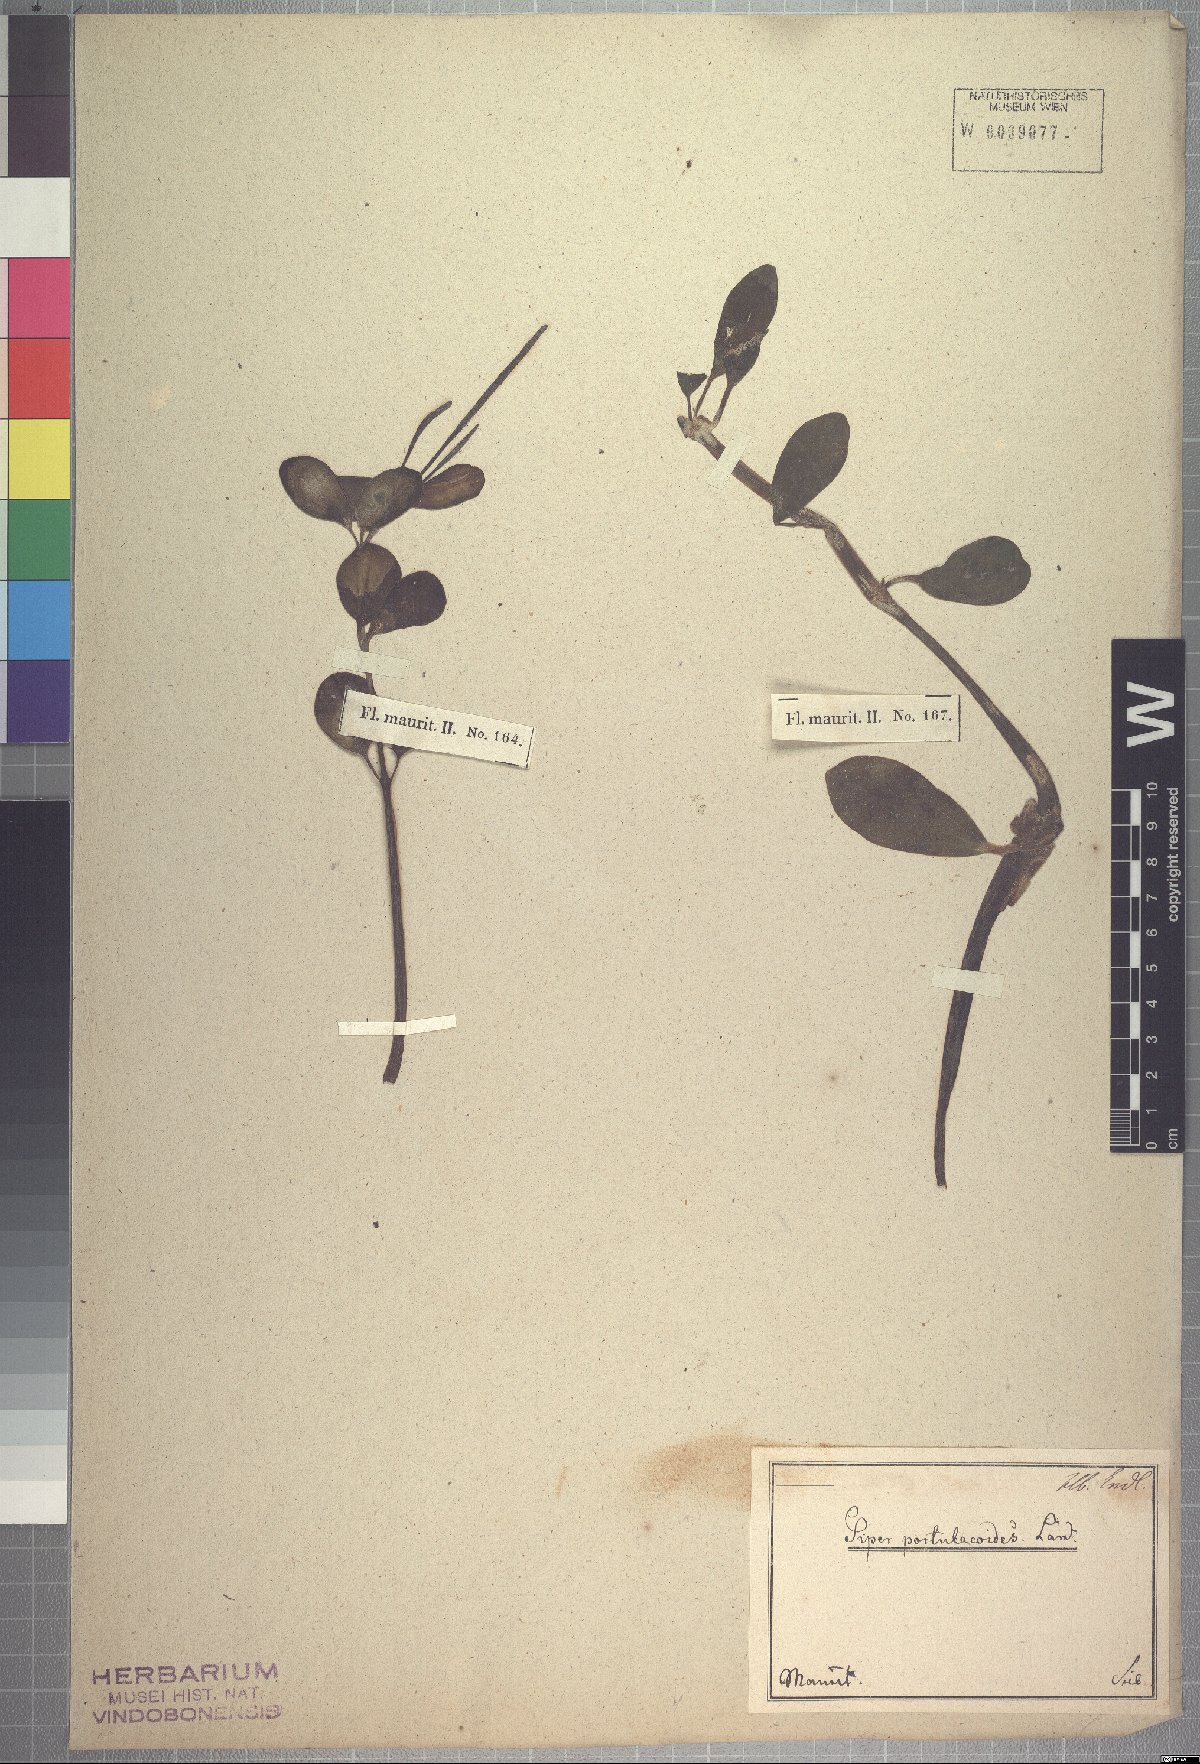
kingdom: Plantae
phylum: Tracheophyta
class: Magnoliopsida
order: Piperales
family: Piperaceae
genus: Peperomia
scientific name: Peperomia portulacoides
